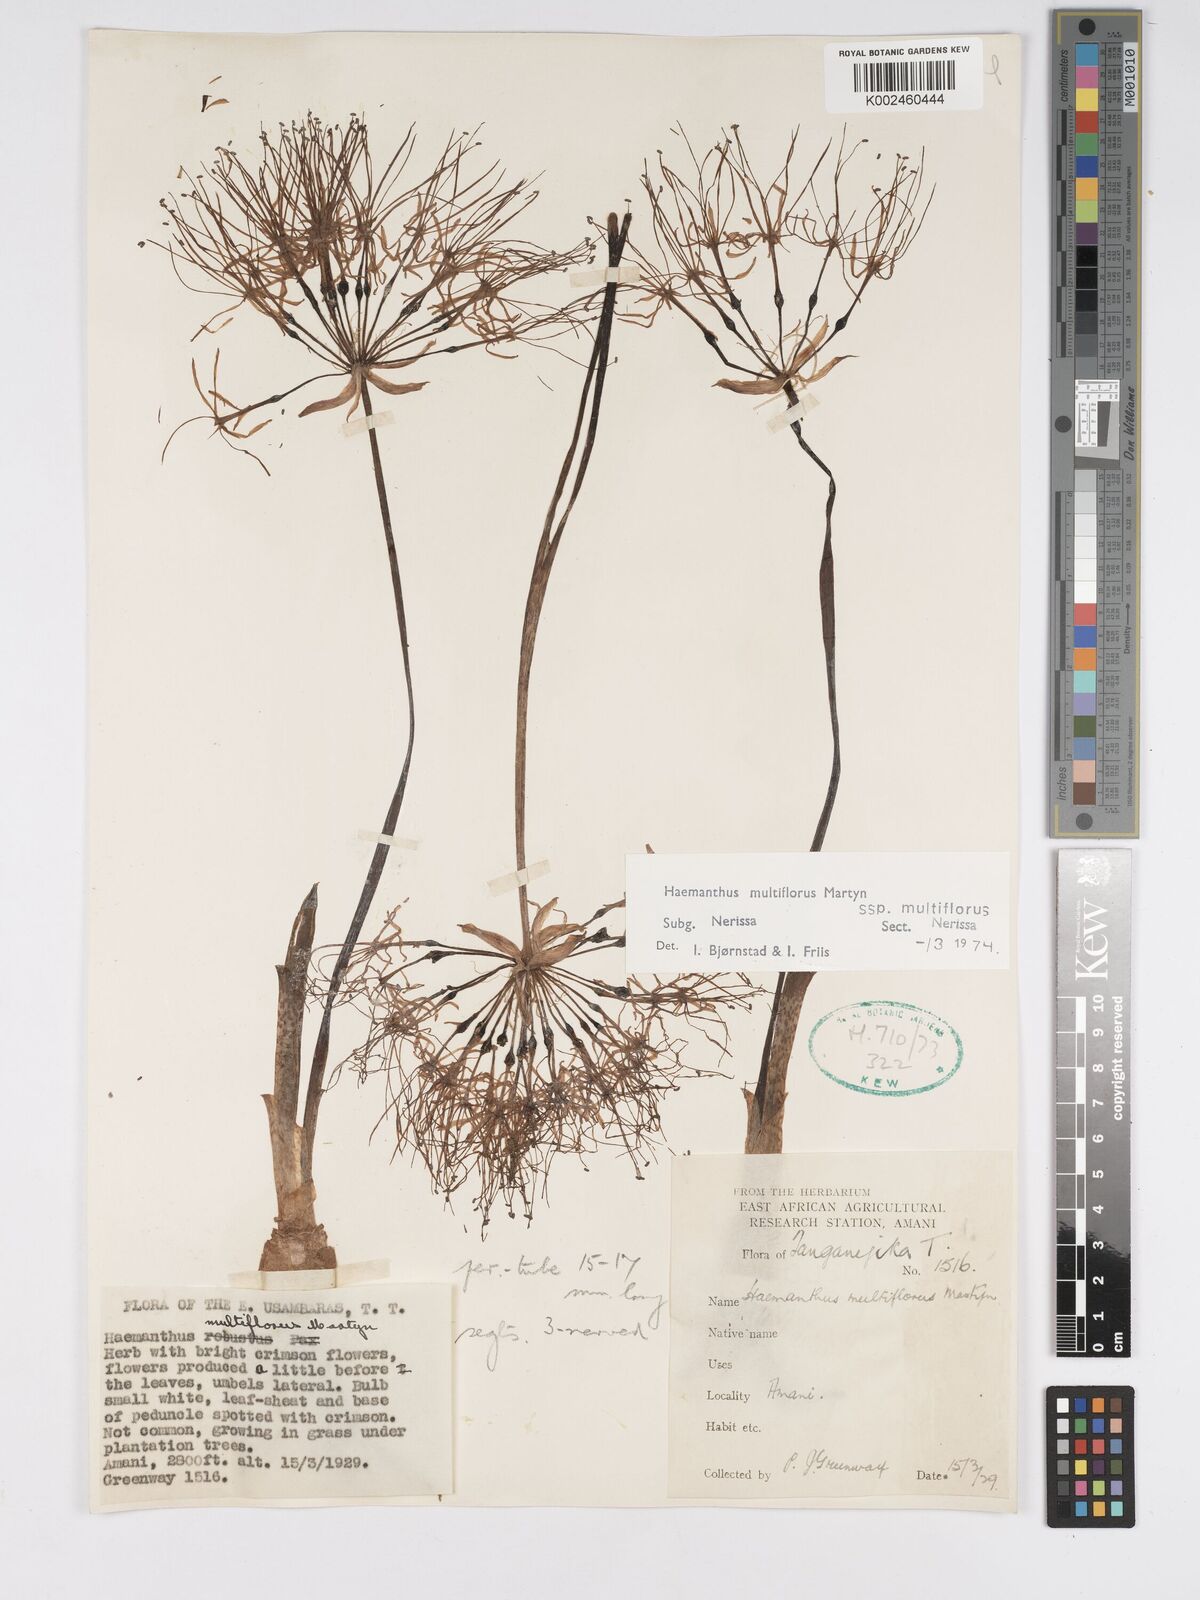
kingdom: Plantae
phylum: Tracheophyta
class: Liliopsida
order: Asparagales
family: Amaryllidaceae
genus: Scadoxus
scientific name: Scadoxus multiflorus
